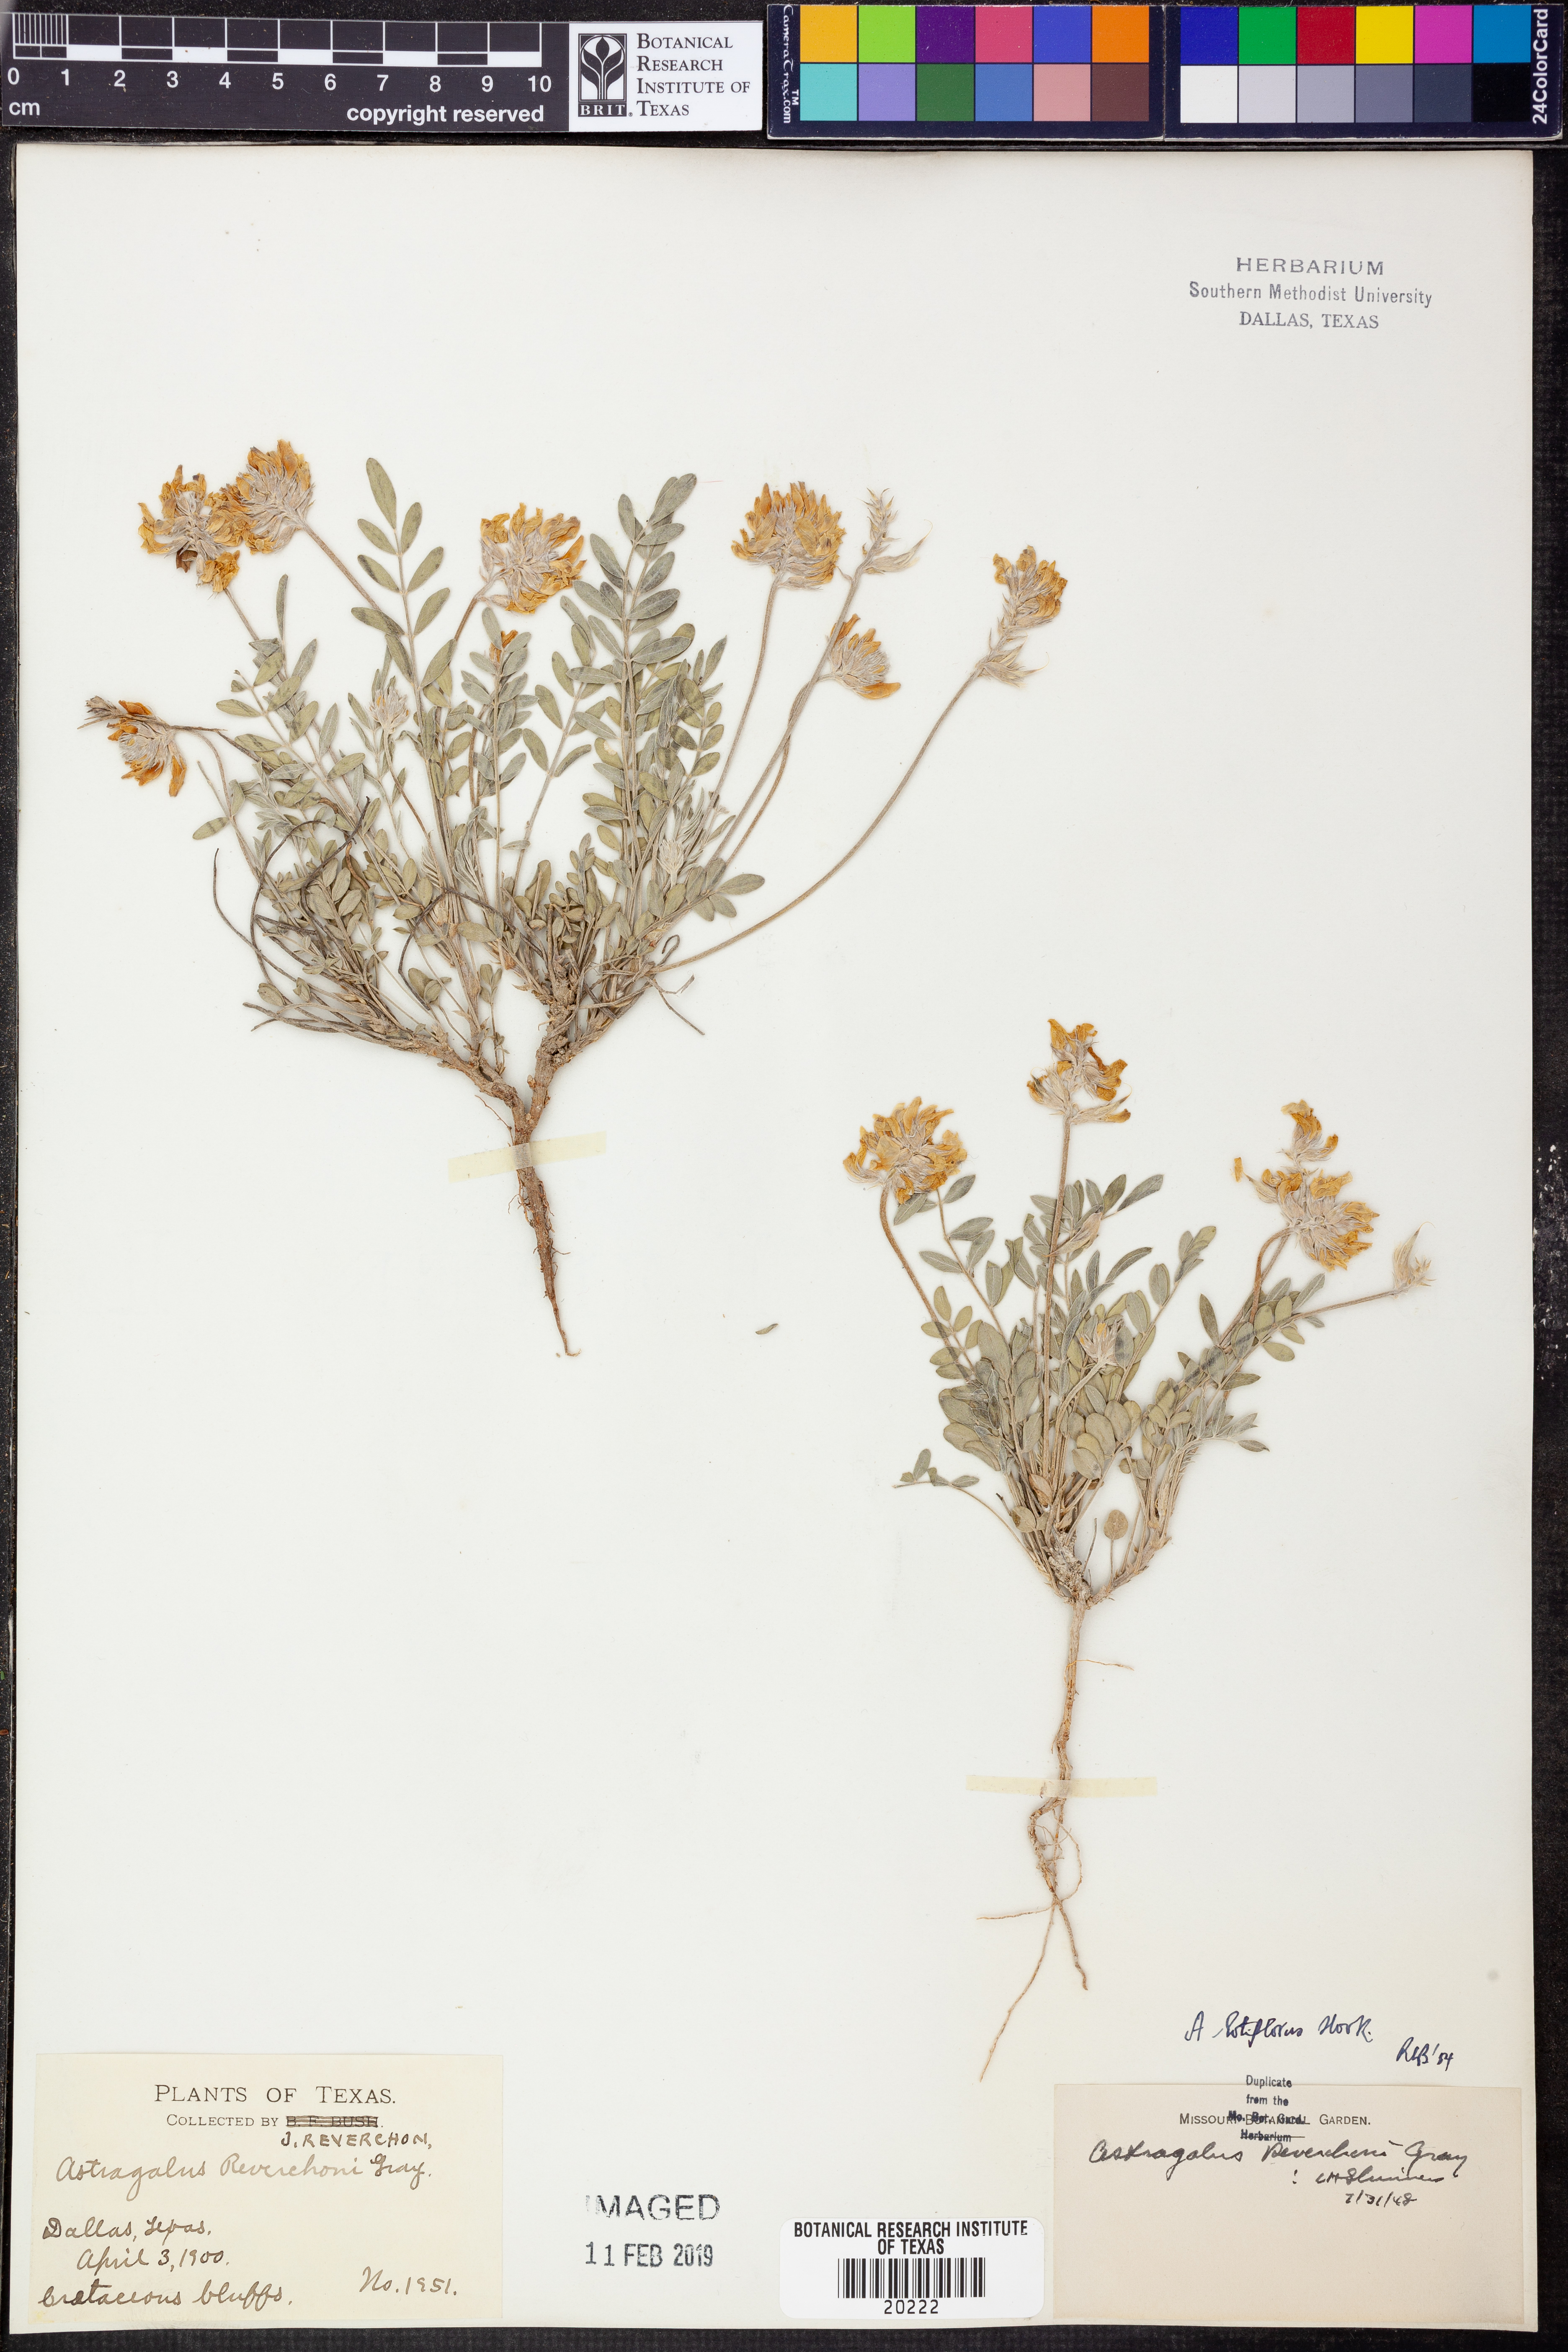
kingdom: Plantae
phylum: Tracheophyta
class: Magnoliopsida
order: Fabales
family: Fabaceae
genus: Astragalus
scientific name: Astragalus lotiflorus
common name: Lotus milk-vetch
